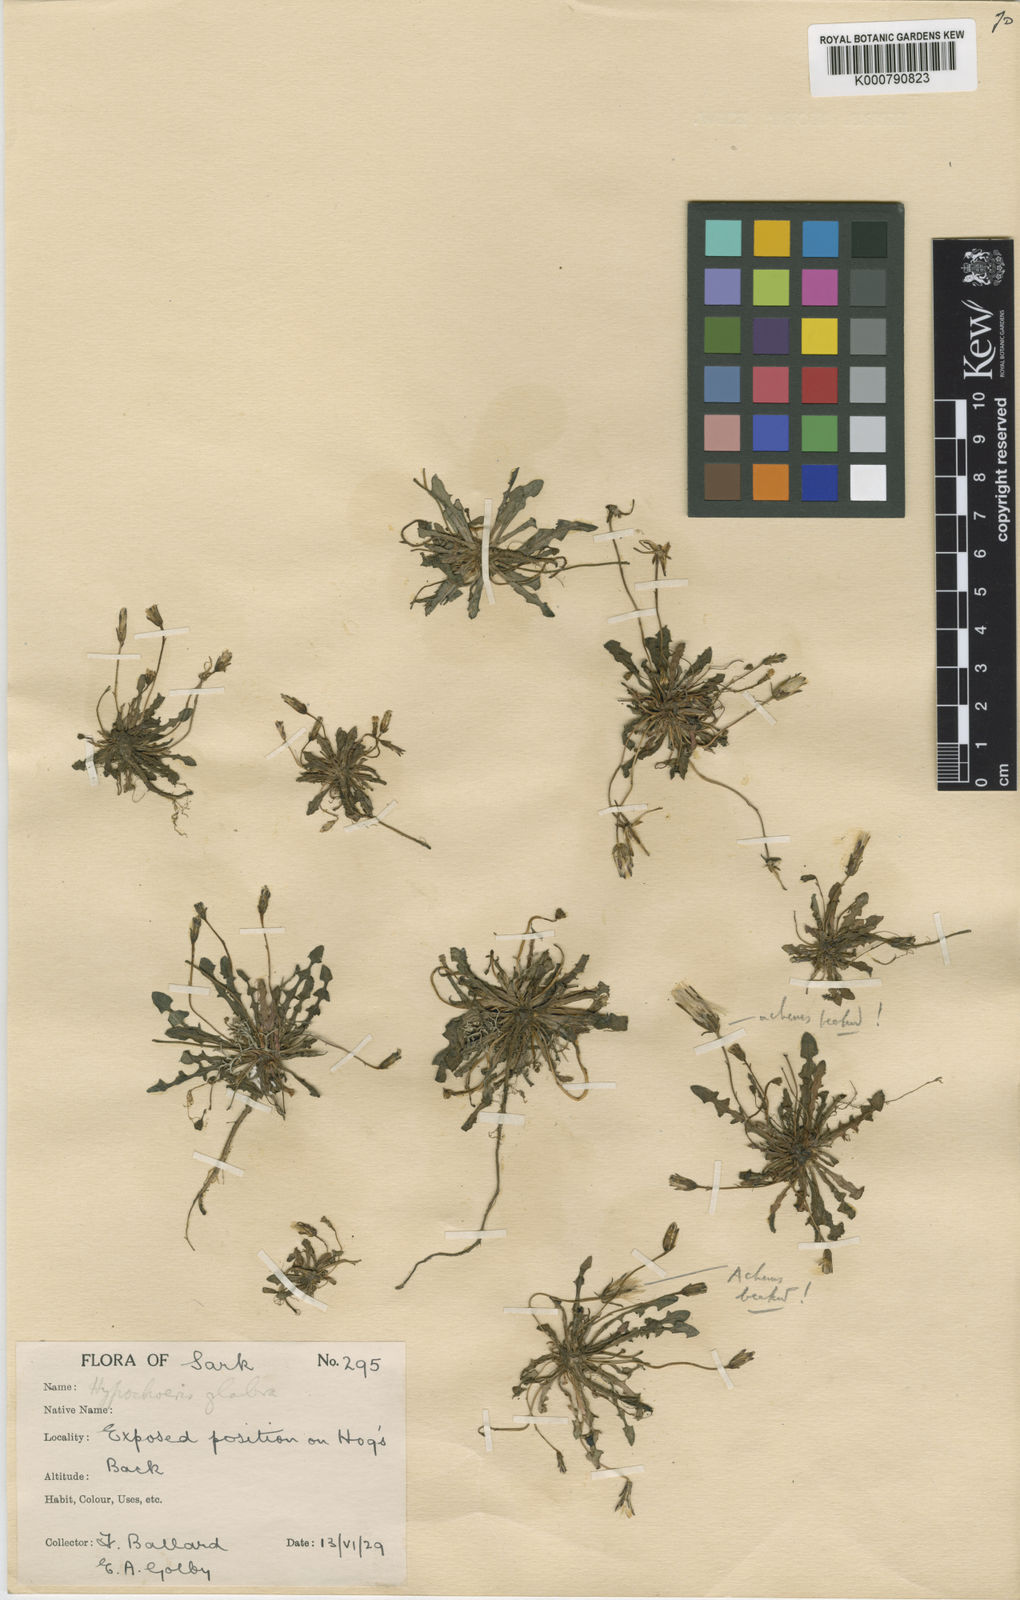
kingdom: Plantae
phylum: Tracheophyta
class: Magnoliopsida
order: Asterales
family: Asteraceae
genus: Hypochaeris
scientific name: Hypochaeris glabra
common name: Smooth catsear
